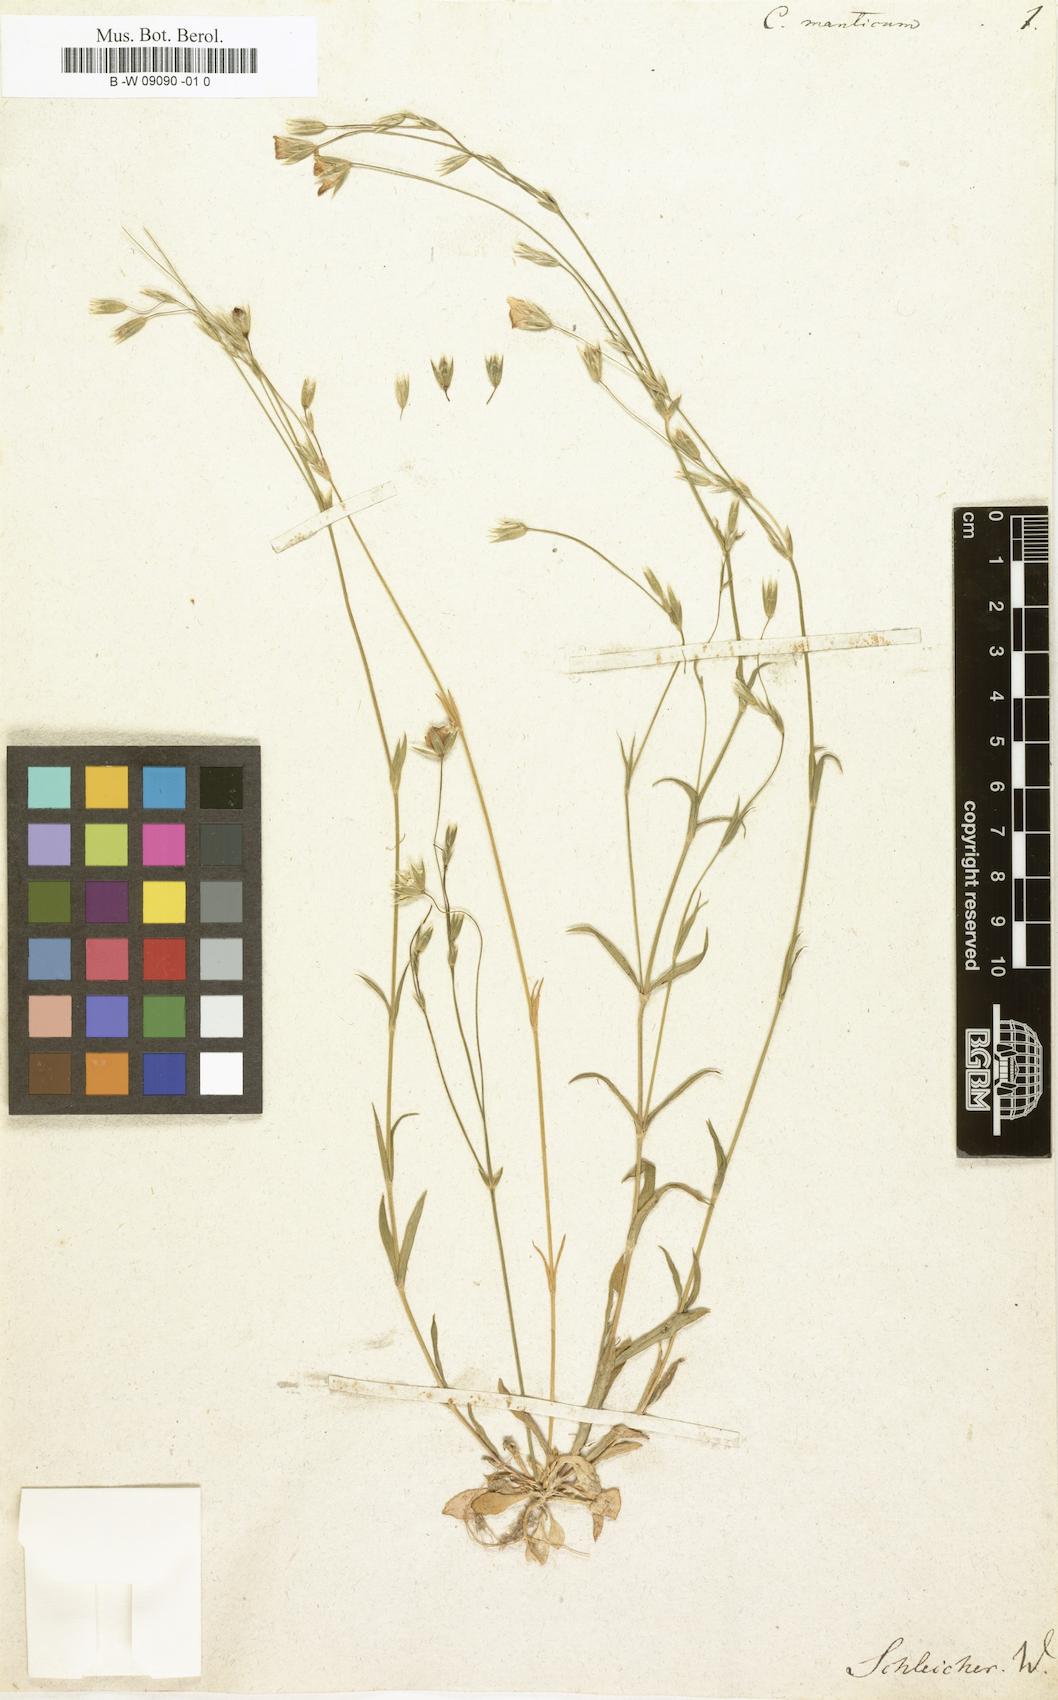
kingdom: Plantae
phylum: Tracheophyta
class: Magnoliopsida
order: Caryophyllales
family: Caryophyllaceae
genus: Moenchia
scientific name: Moenchia mantica
